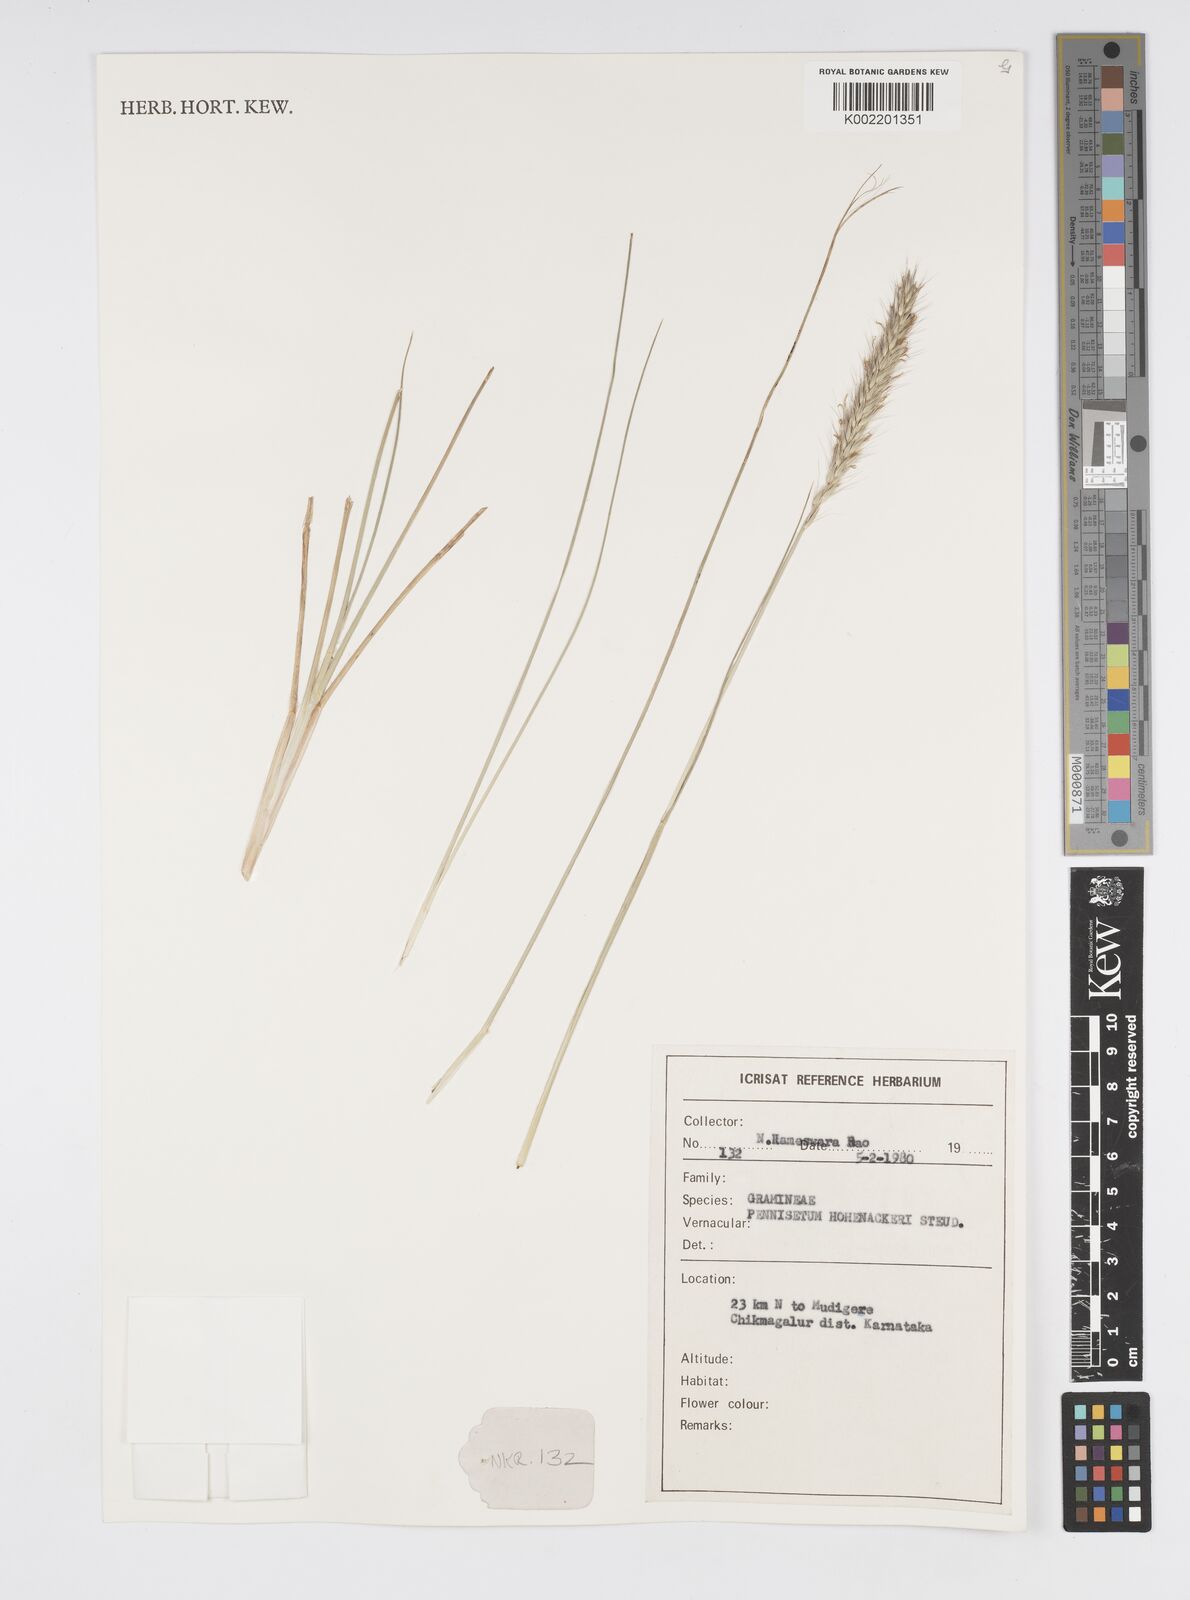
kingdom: Plantae
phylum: Tracheophyta
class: Liliopsida
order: Poales
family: Poaceae
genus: Cenchrus
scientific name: Cenchrus hohenackeri
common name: Moya grass
